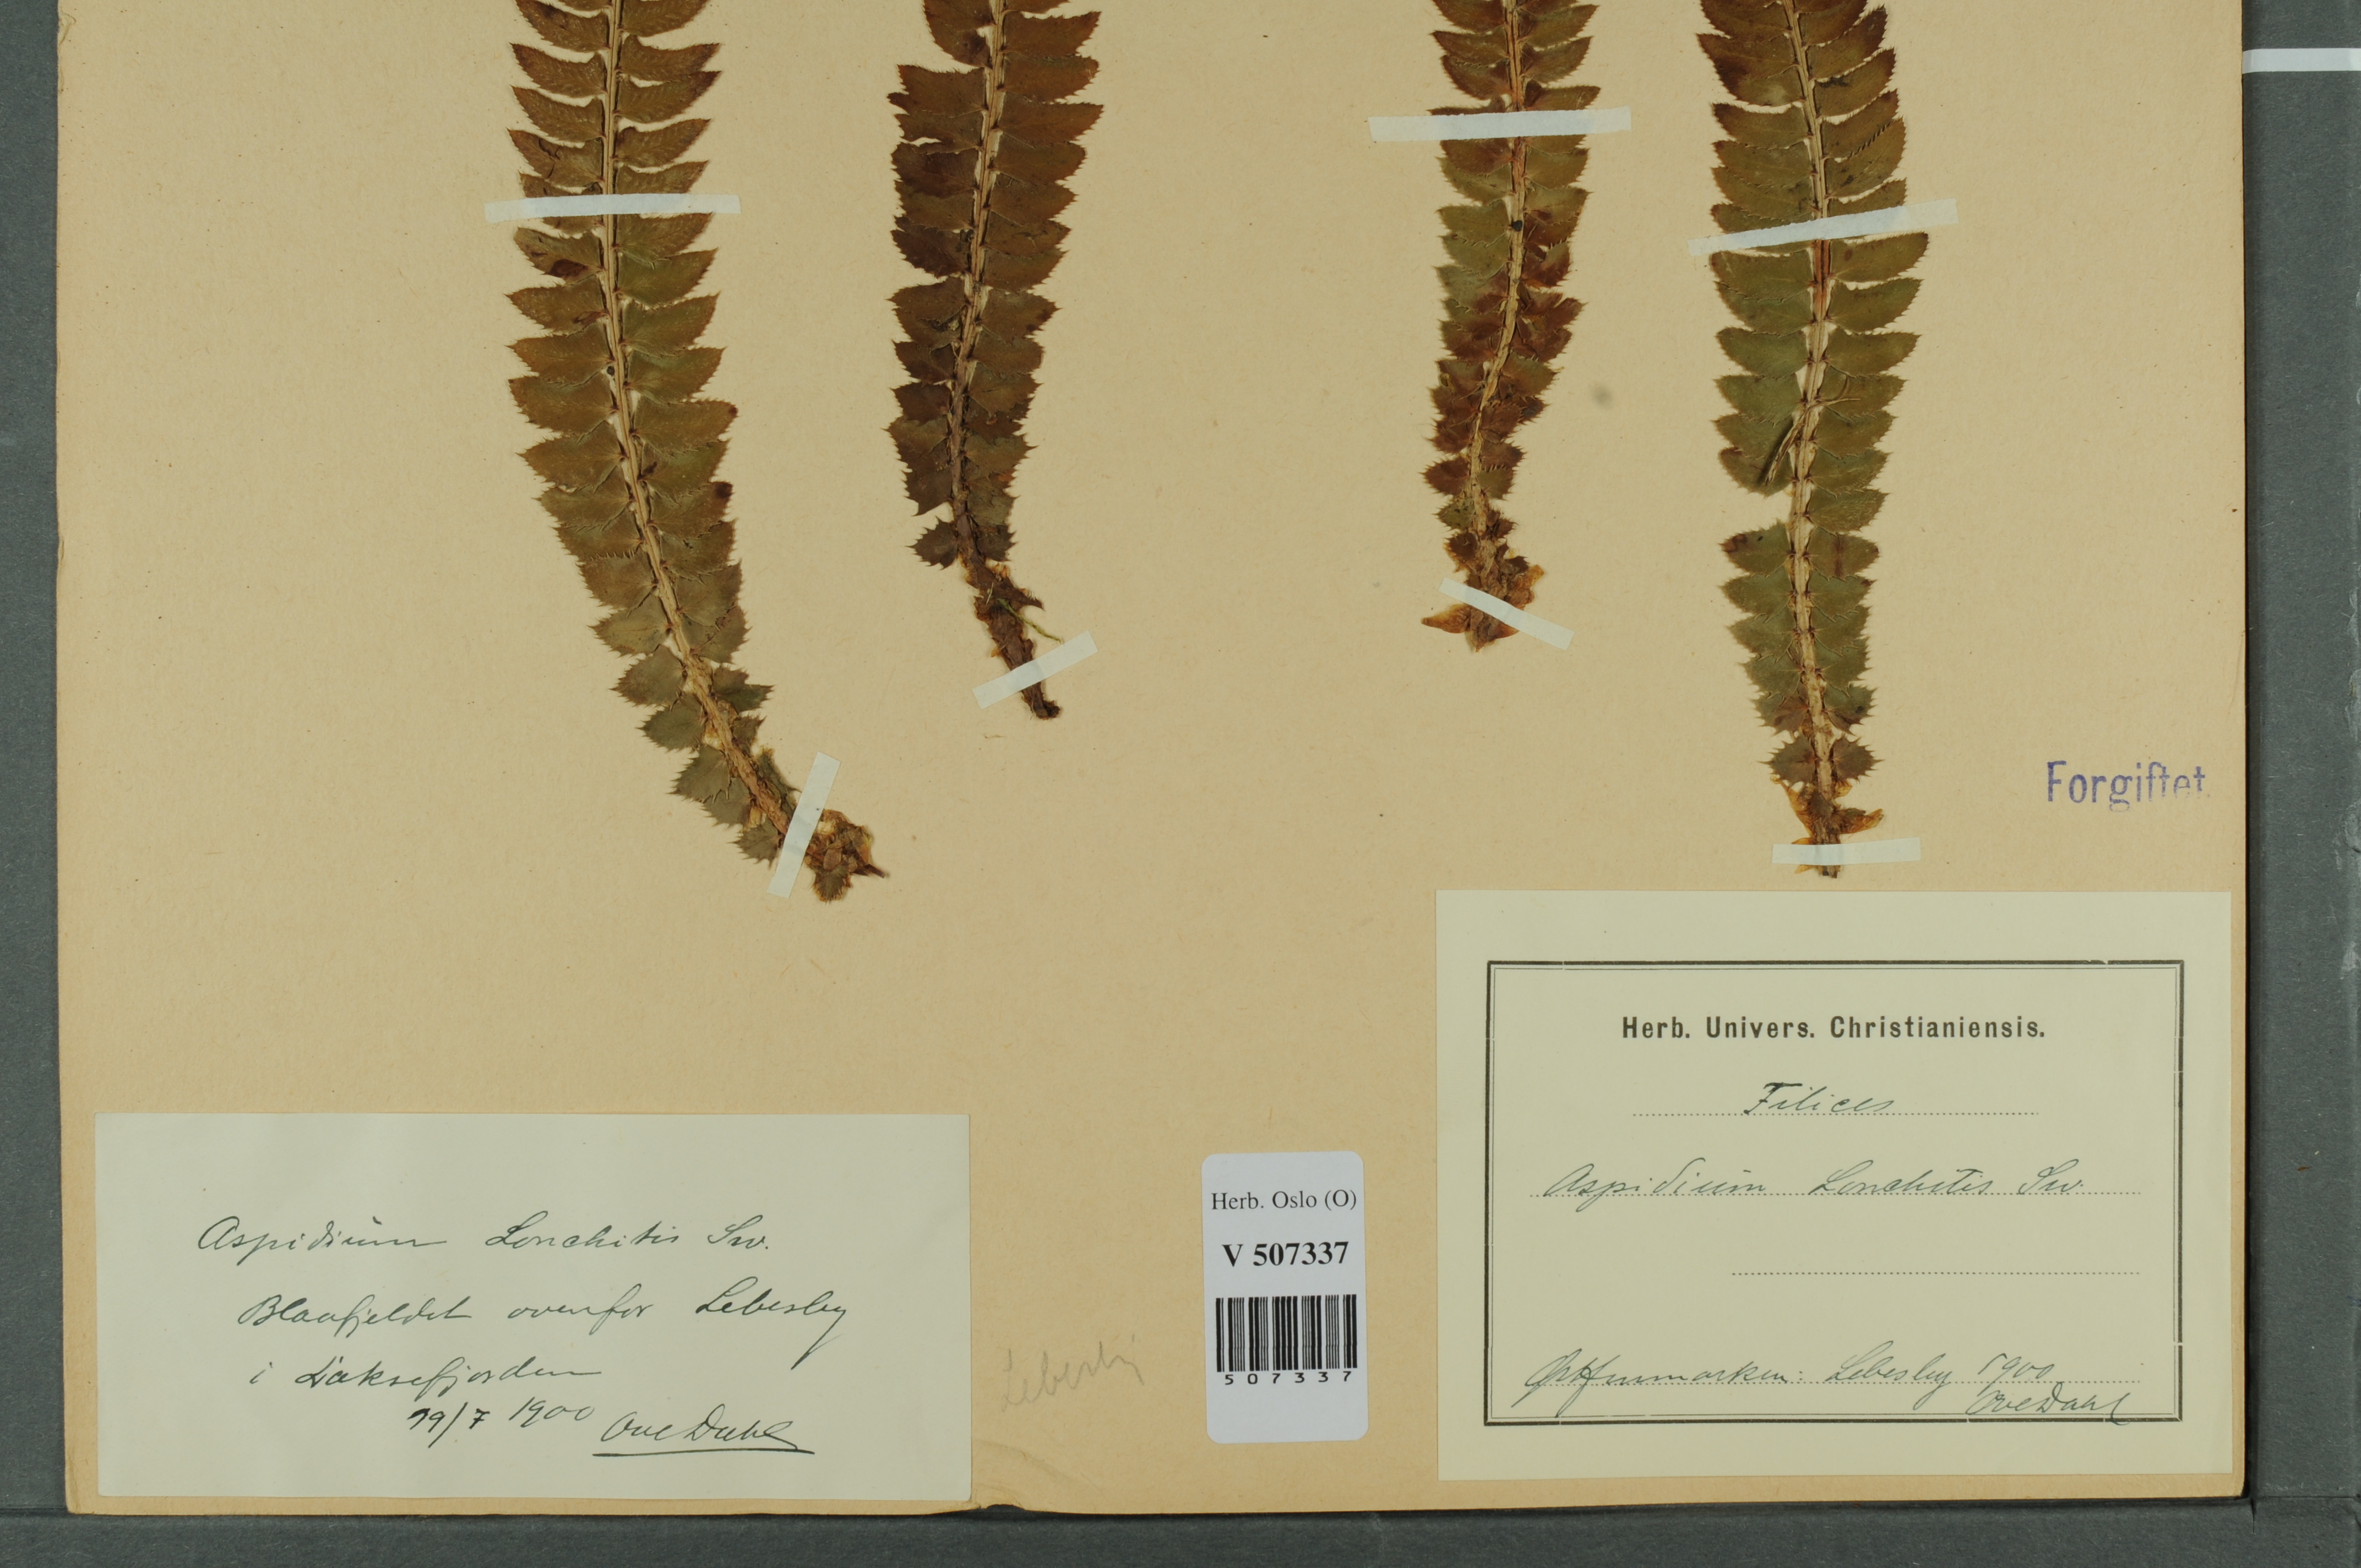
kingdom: Plantae
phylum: Tracheophyta
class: Polypodiopsida
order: Polypodiales
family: Dryopteridaceae
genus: Polystichum
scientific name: Polystichum lonchitis
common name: Holly fern
